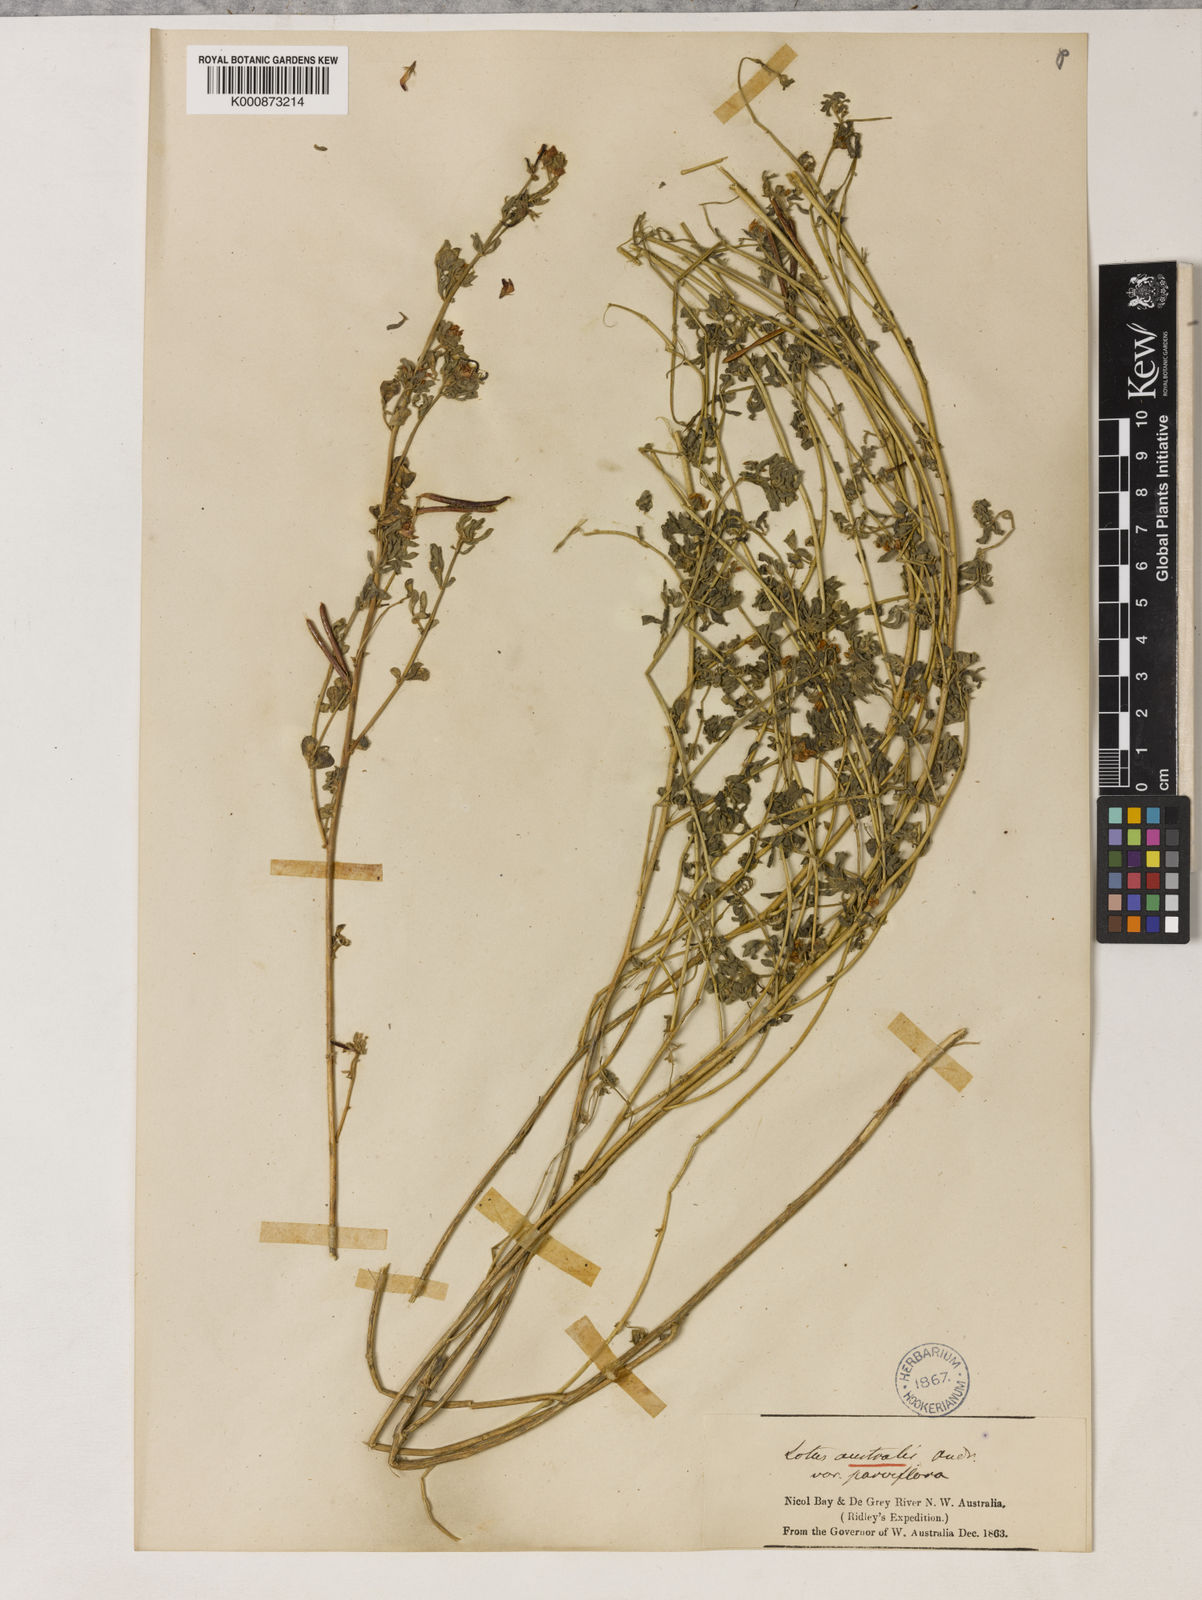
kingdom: Plantae
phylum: Tracheophyta
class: Magnoliopsida
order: Fabales
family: Fabaceae
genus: Lotus
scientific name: Lotus cruentus
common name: Red bird's-foot trefoil
